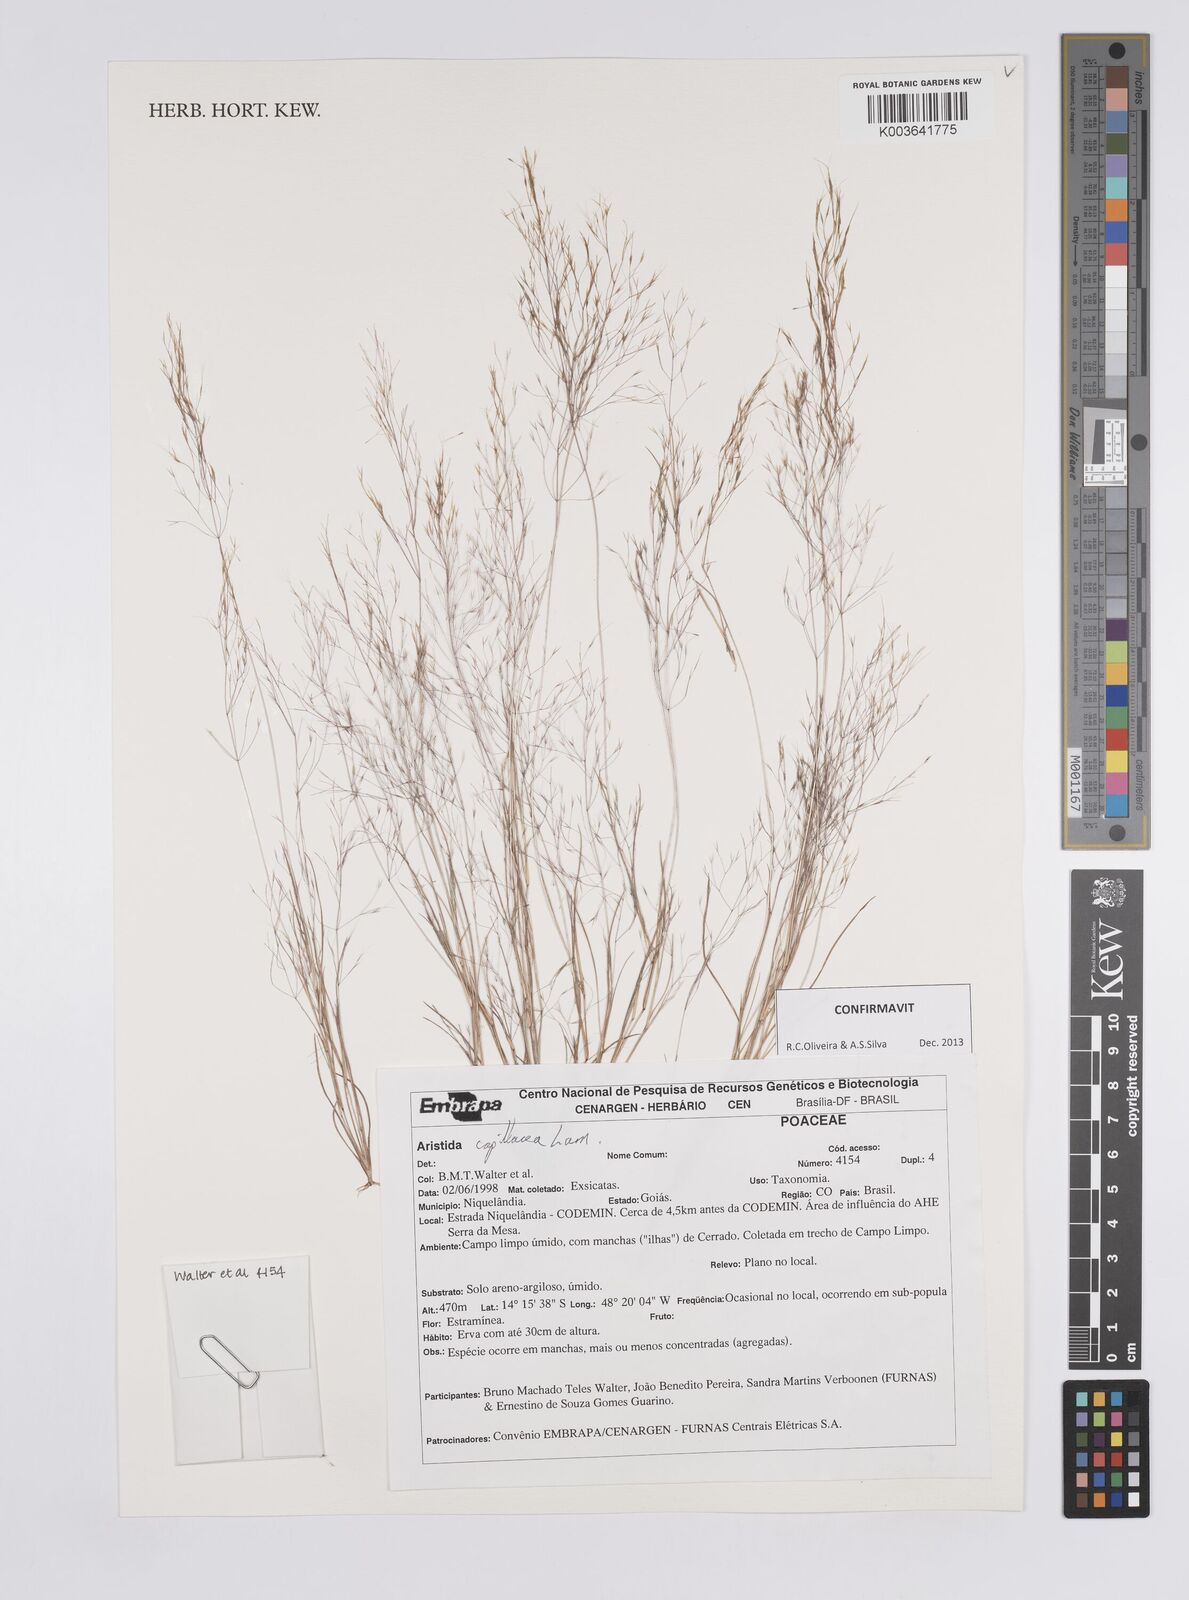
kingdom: Plantae
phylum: Tracheophyta
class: Liliopsida
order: Poales
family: Poaceae
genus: Aristida
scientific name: Aristida capillacea
